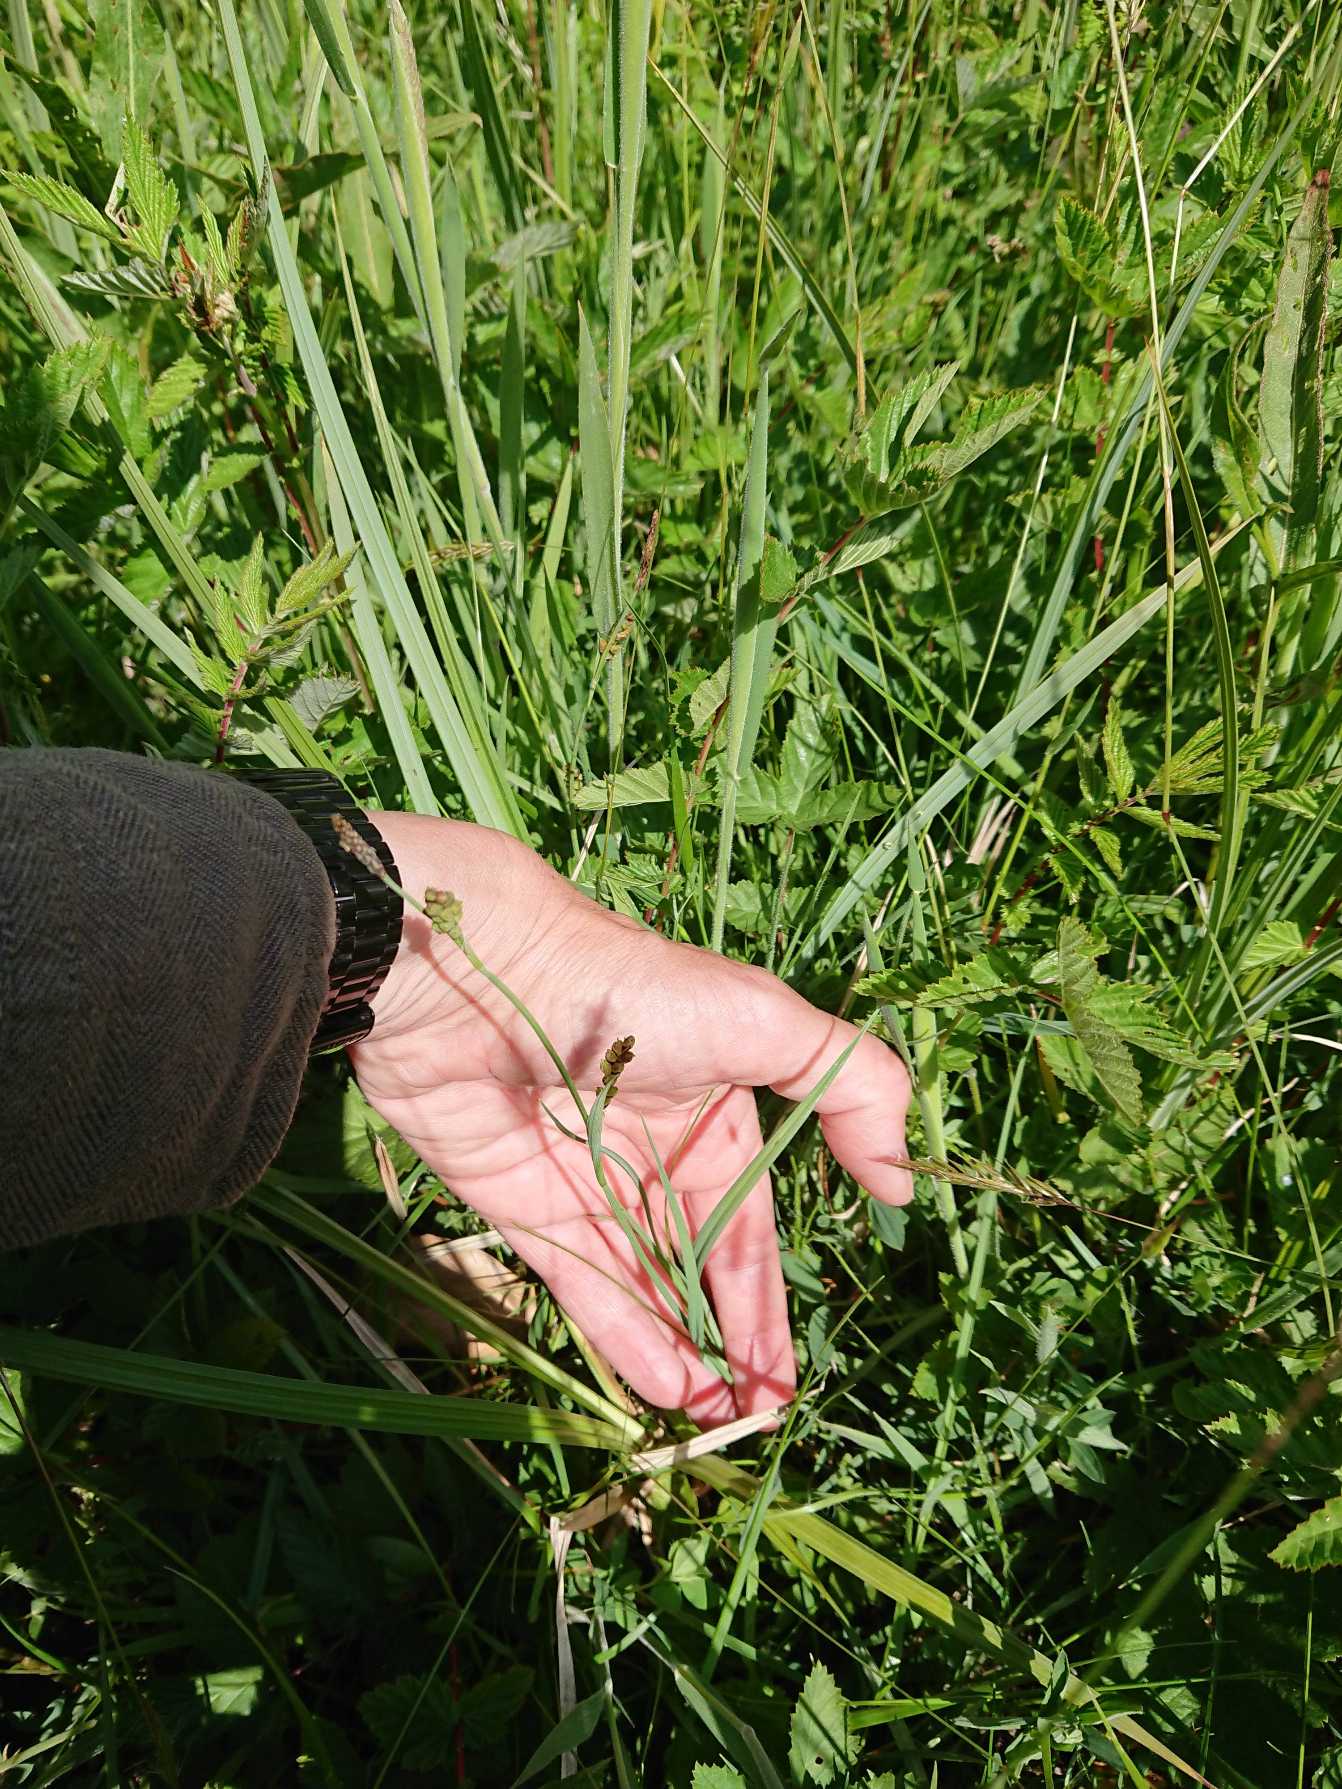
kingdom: Plantae
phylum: Tracheophyta
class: Liliopsida
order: Poales
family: Cyperaceae
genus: Carex
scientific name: Carex panicea
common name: Hirse-star
